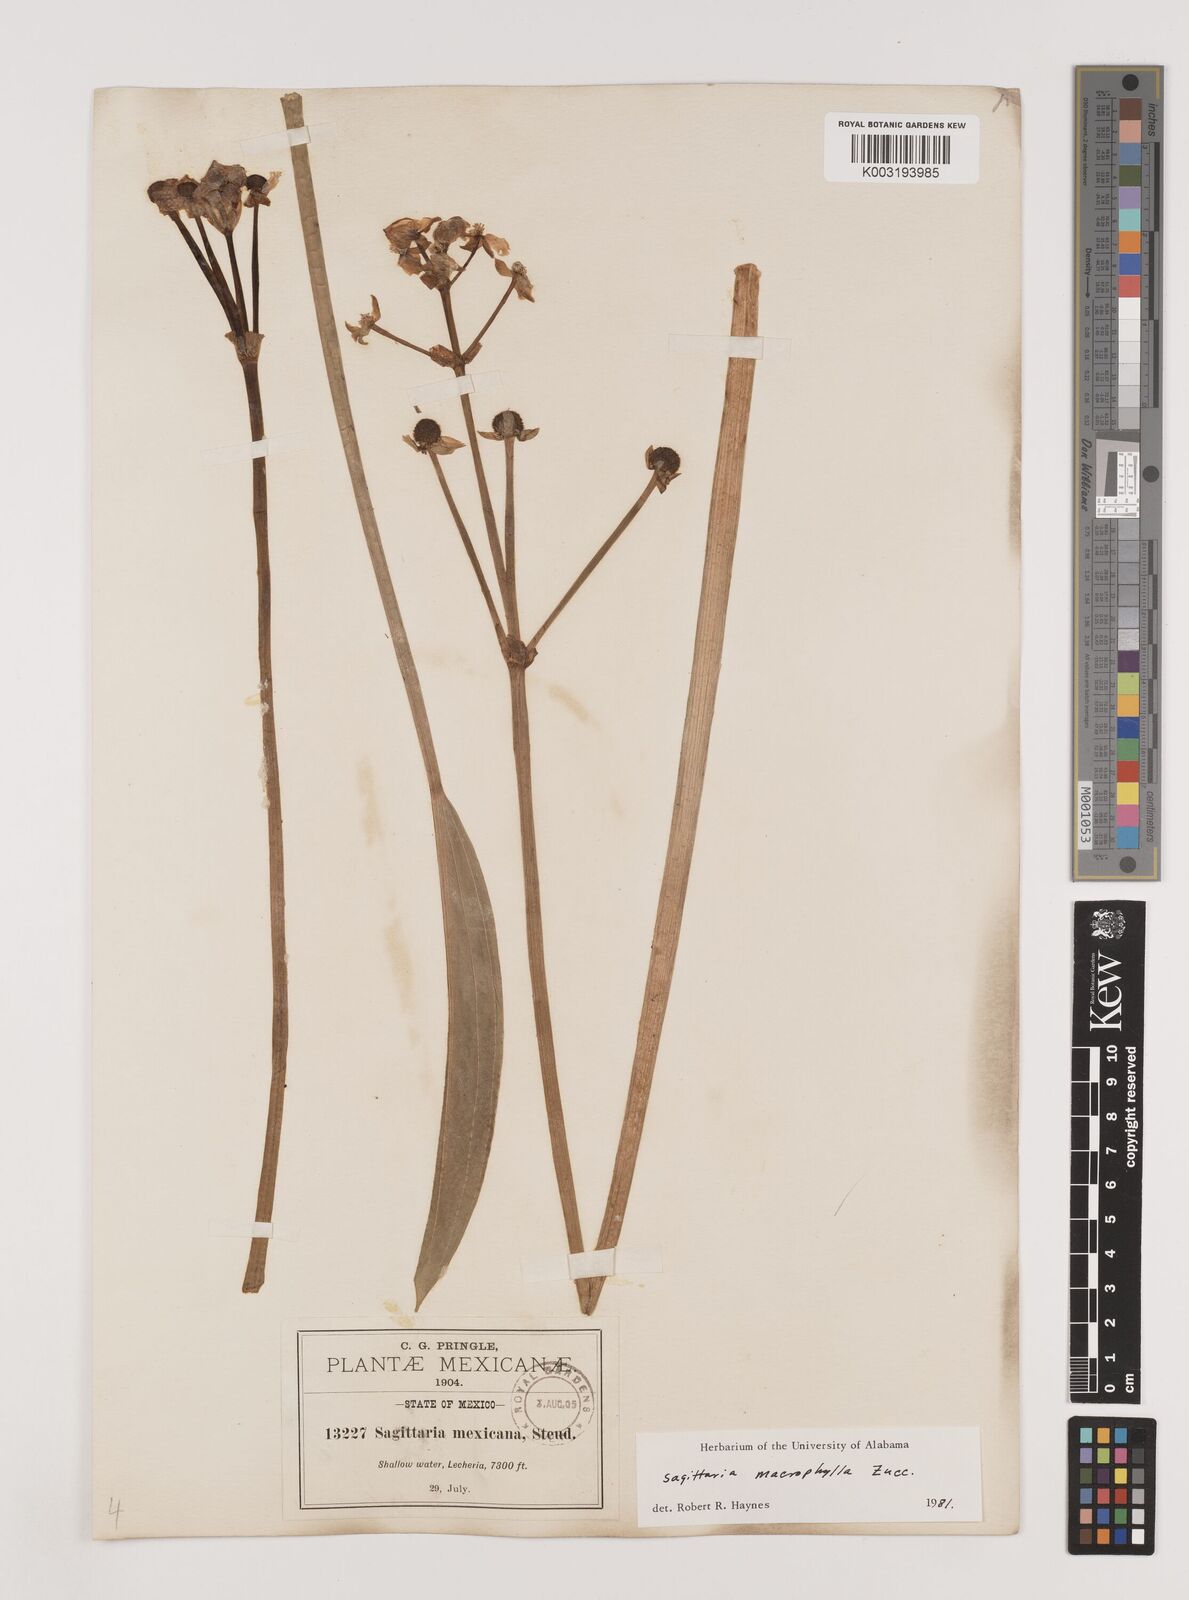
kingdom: Plantae
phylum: Tracheophyta
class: Liliopsida
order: Alismatales
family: Alismataceae
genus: Sagittaria
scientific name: Sagittaria macrophylla
